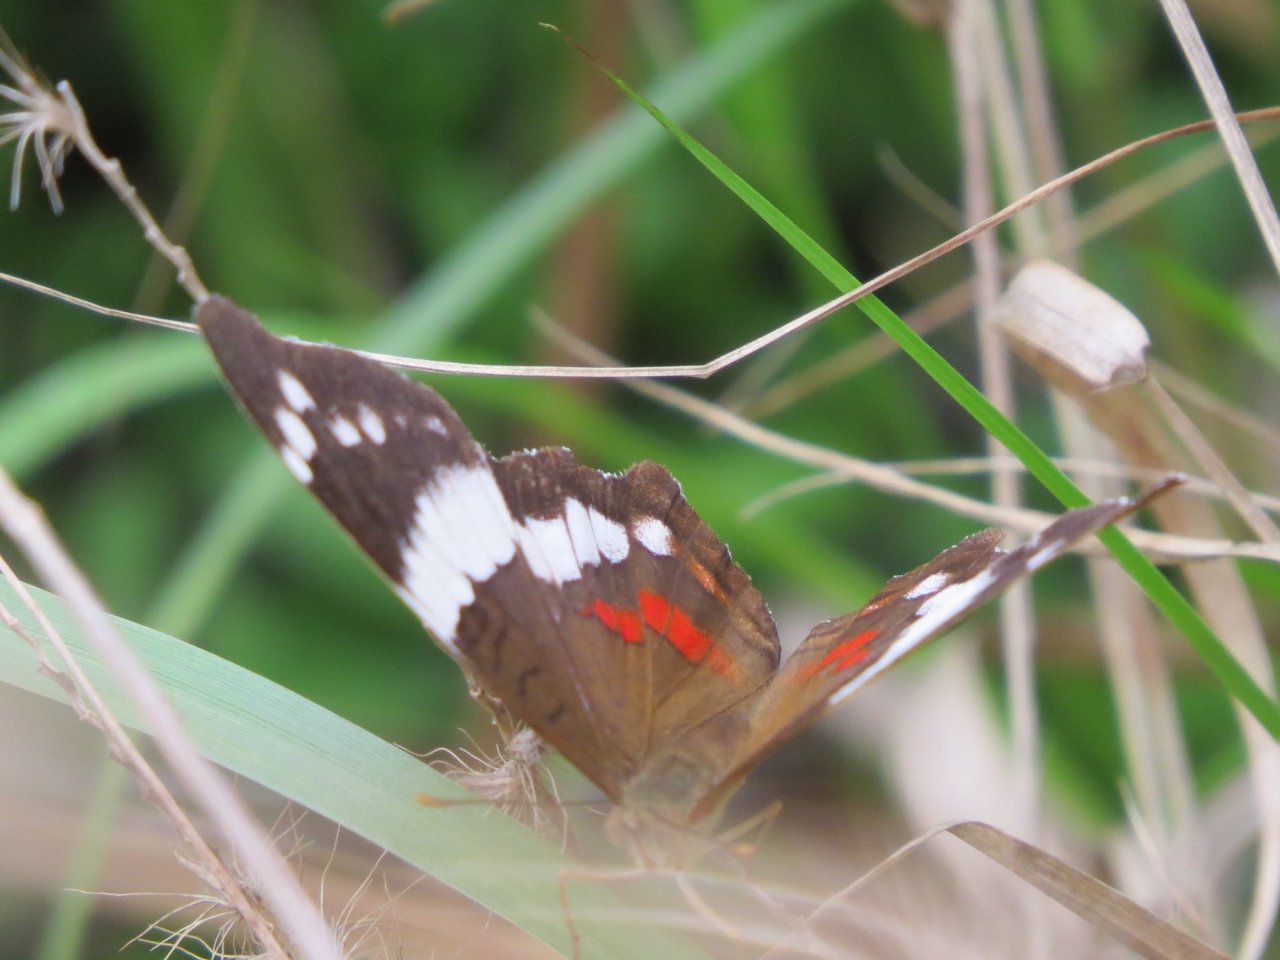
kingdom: Animalia
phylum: Arthropoda
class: Insecta
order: Lepidoptera
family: Nymphalidae
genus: Anartia
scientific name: Anartia fatima
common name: Banded Peacock
